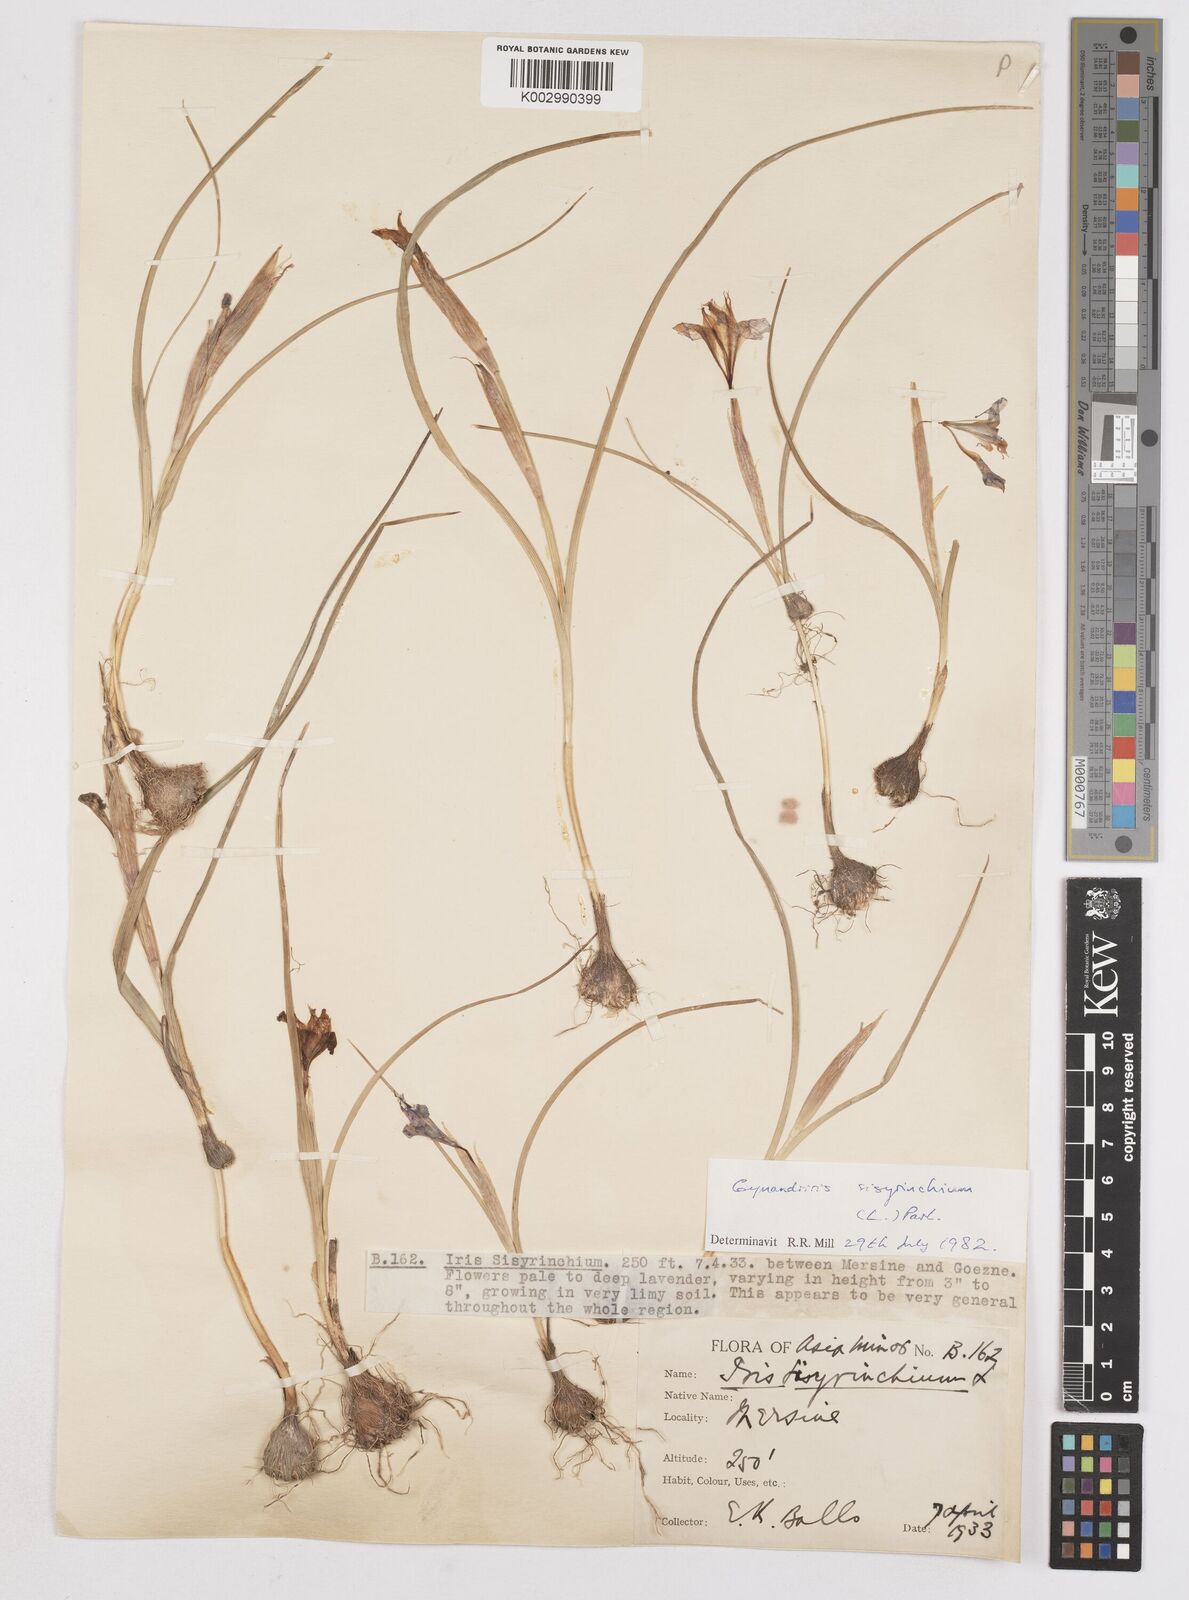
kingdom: Plantae
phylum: Tracheophyta
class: Liliopsida
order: Asparagales
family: Iridaceae
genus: Moraea
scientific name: Moraea sisyrinchium
